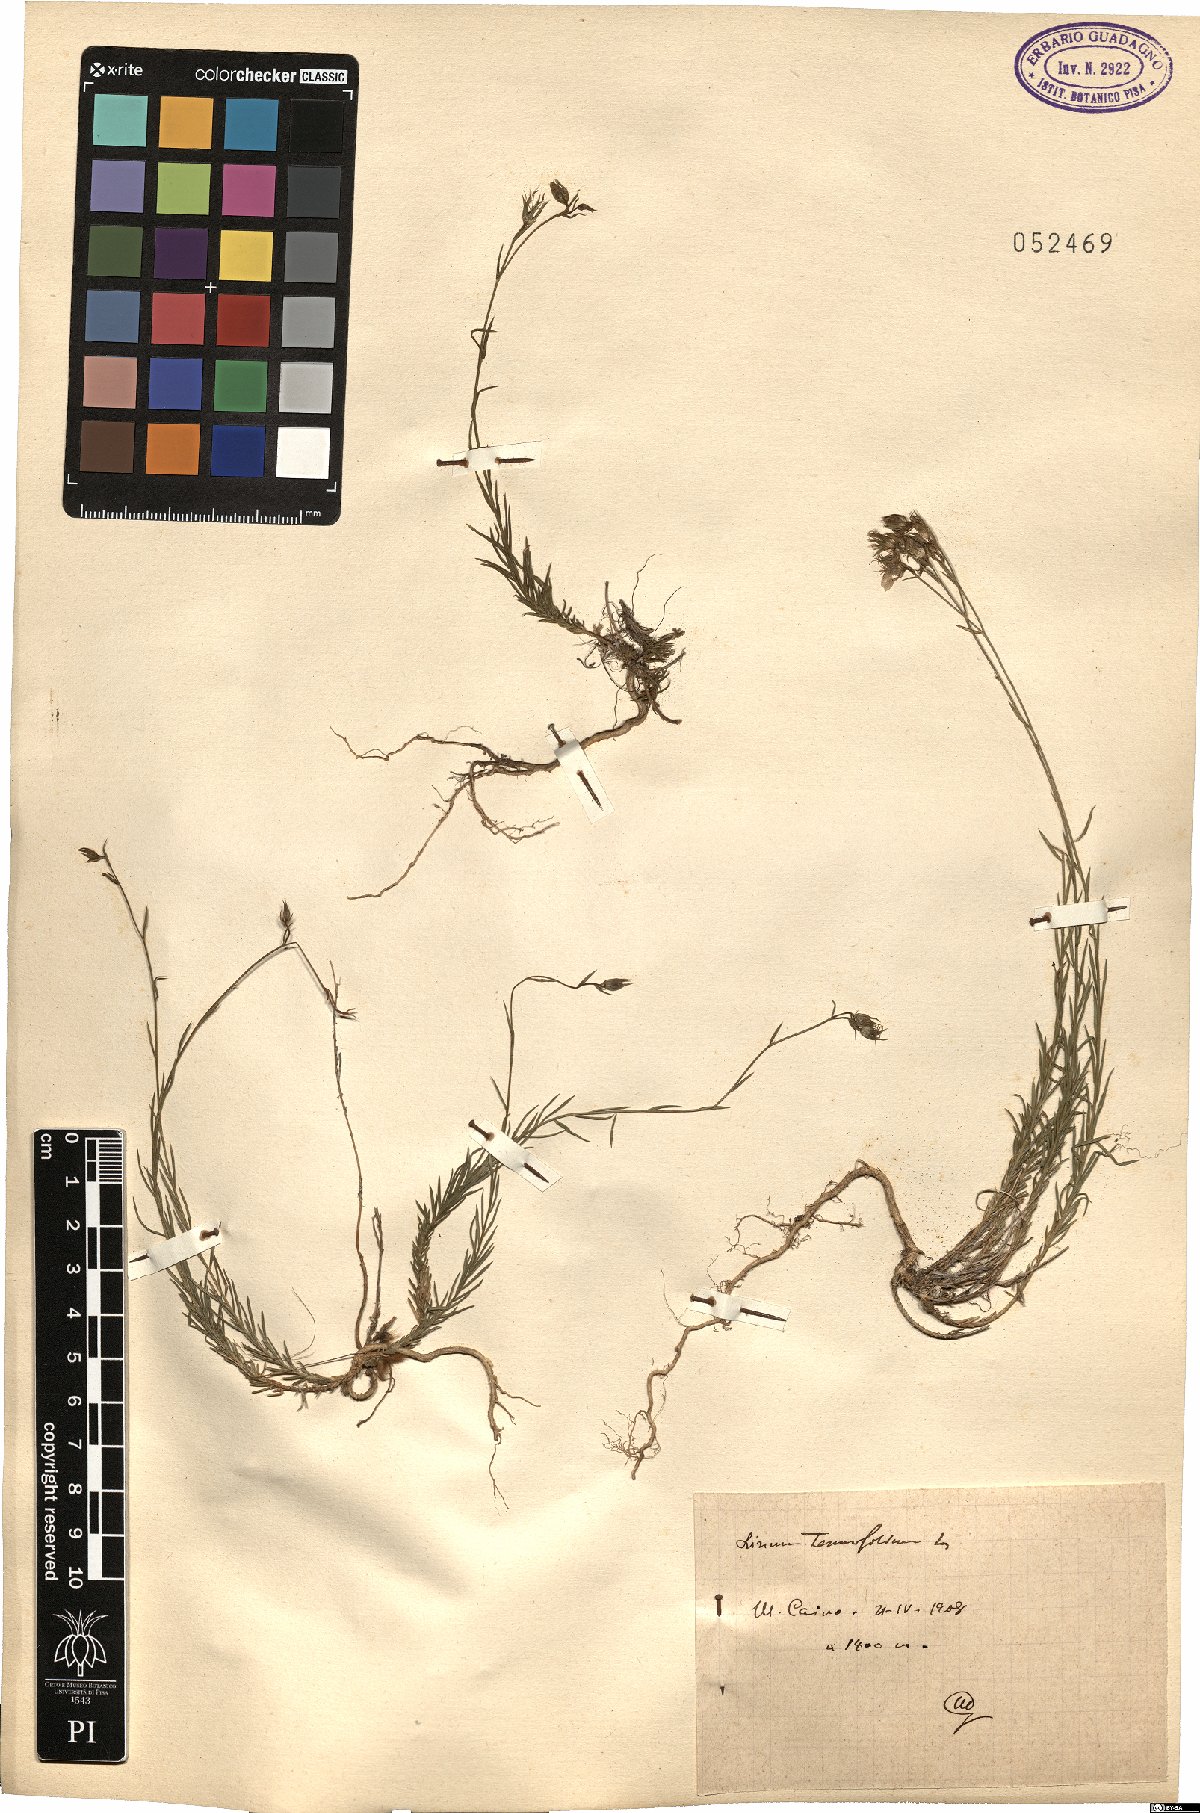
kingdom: Plantae
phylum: Tracheophyta
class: Magnoliopsida
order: Malpighiales
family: Linaceae
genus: Linum
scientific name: Linum tenuifolium
